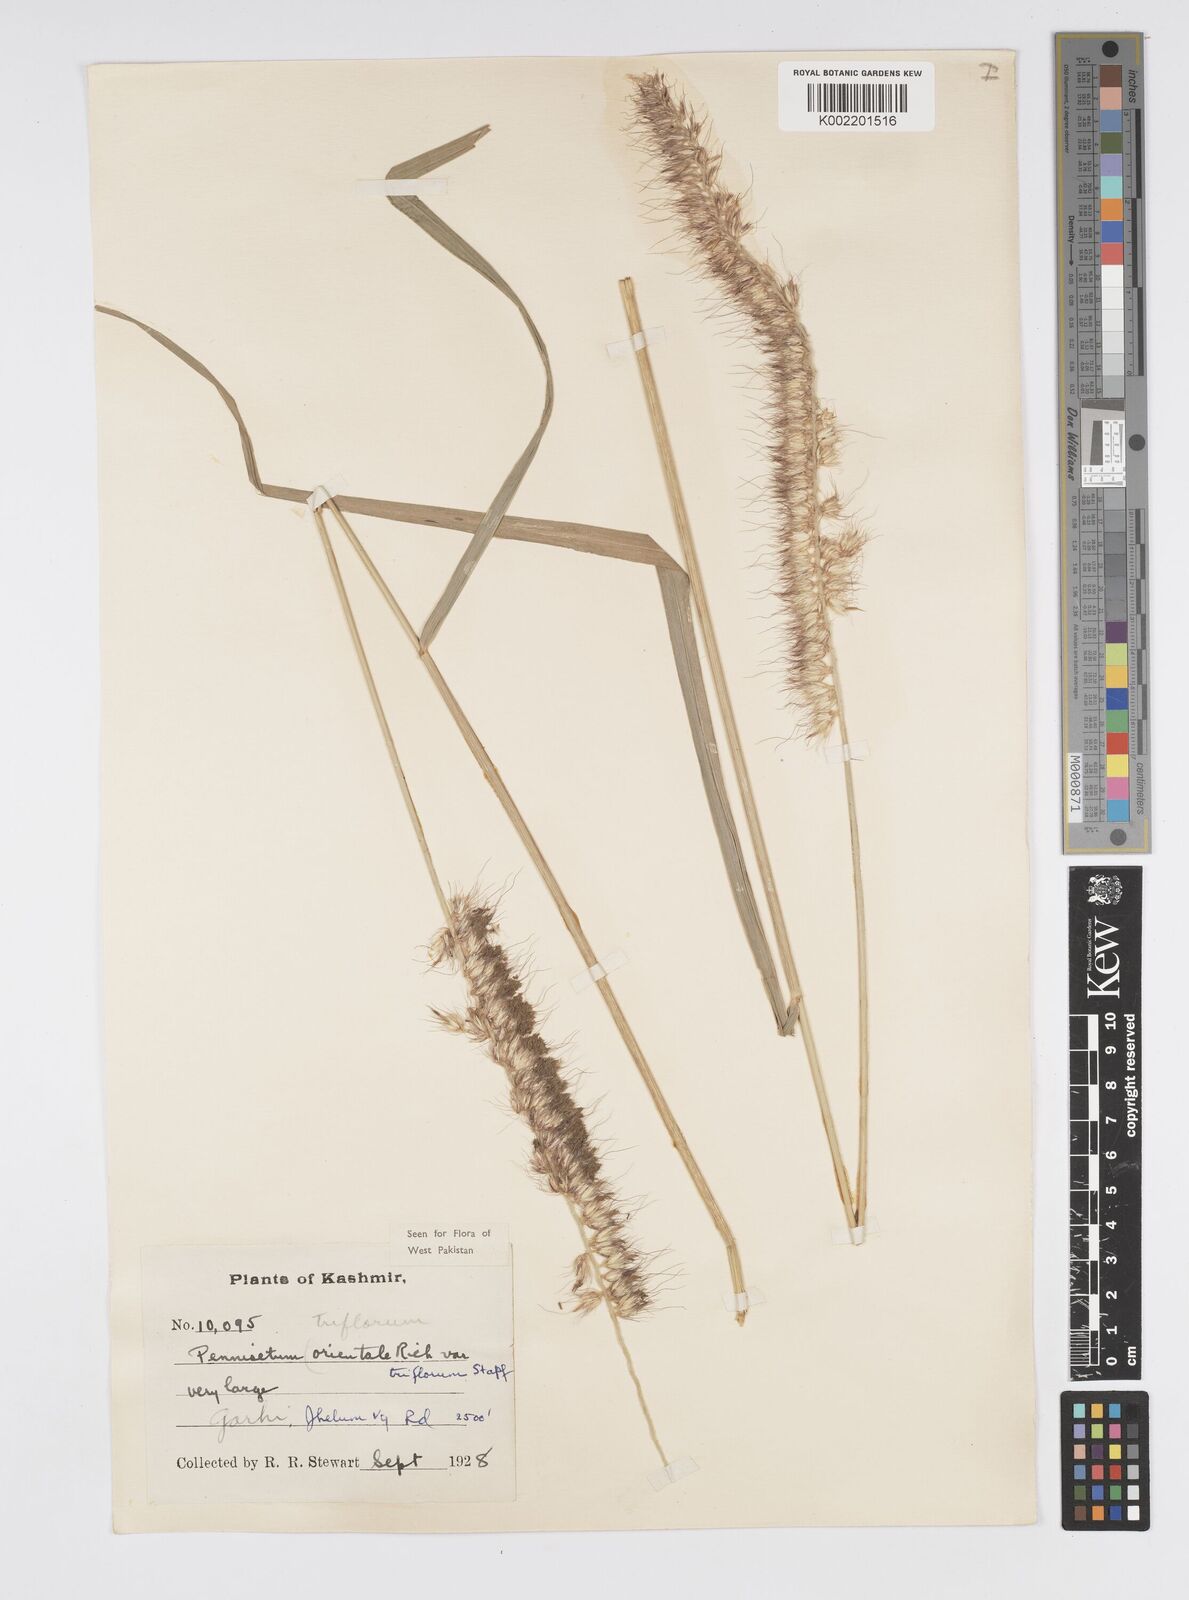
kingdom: Plantae
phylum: Tracheophyta
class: Liliopsida
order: Poales
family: Poaceae
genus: Cenchrus
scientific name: Cenchrus orientalis
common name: Oriental fountain grass
